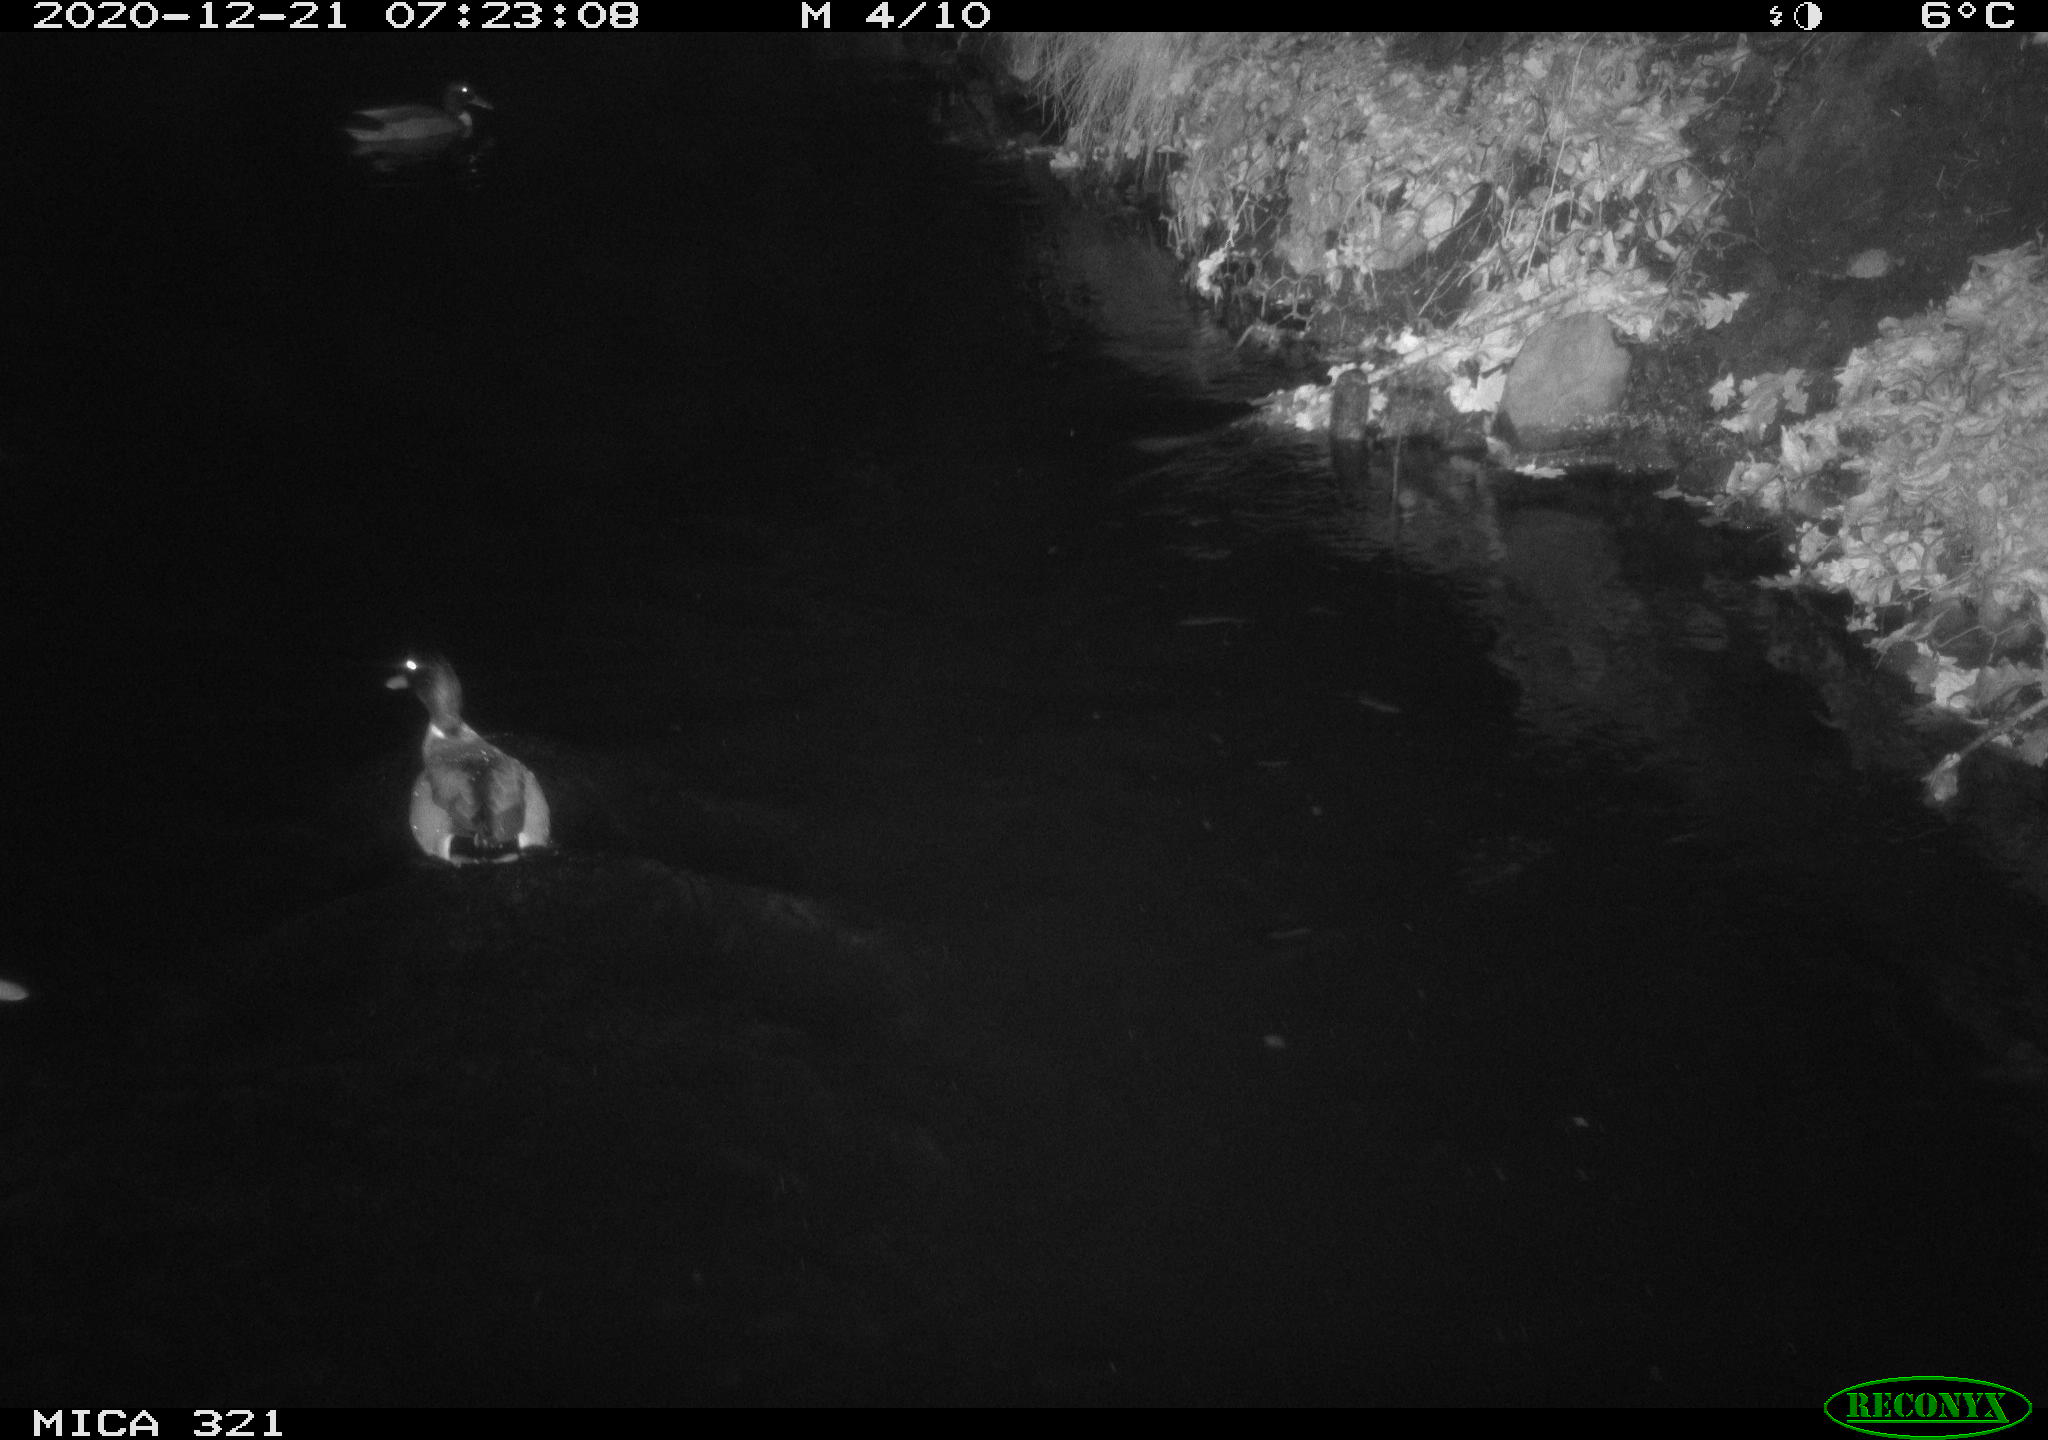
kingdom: Animalia
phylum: Chordata
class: Aves
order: Anseriformes
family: Anatidae
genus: Anas
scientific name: Anas platyrhynchos
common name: Mallard
